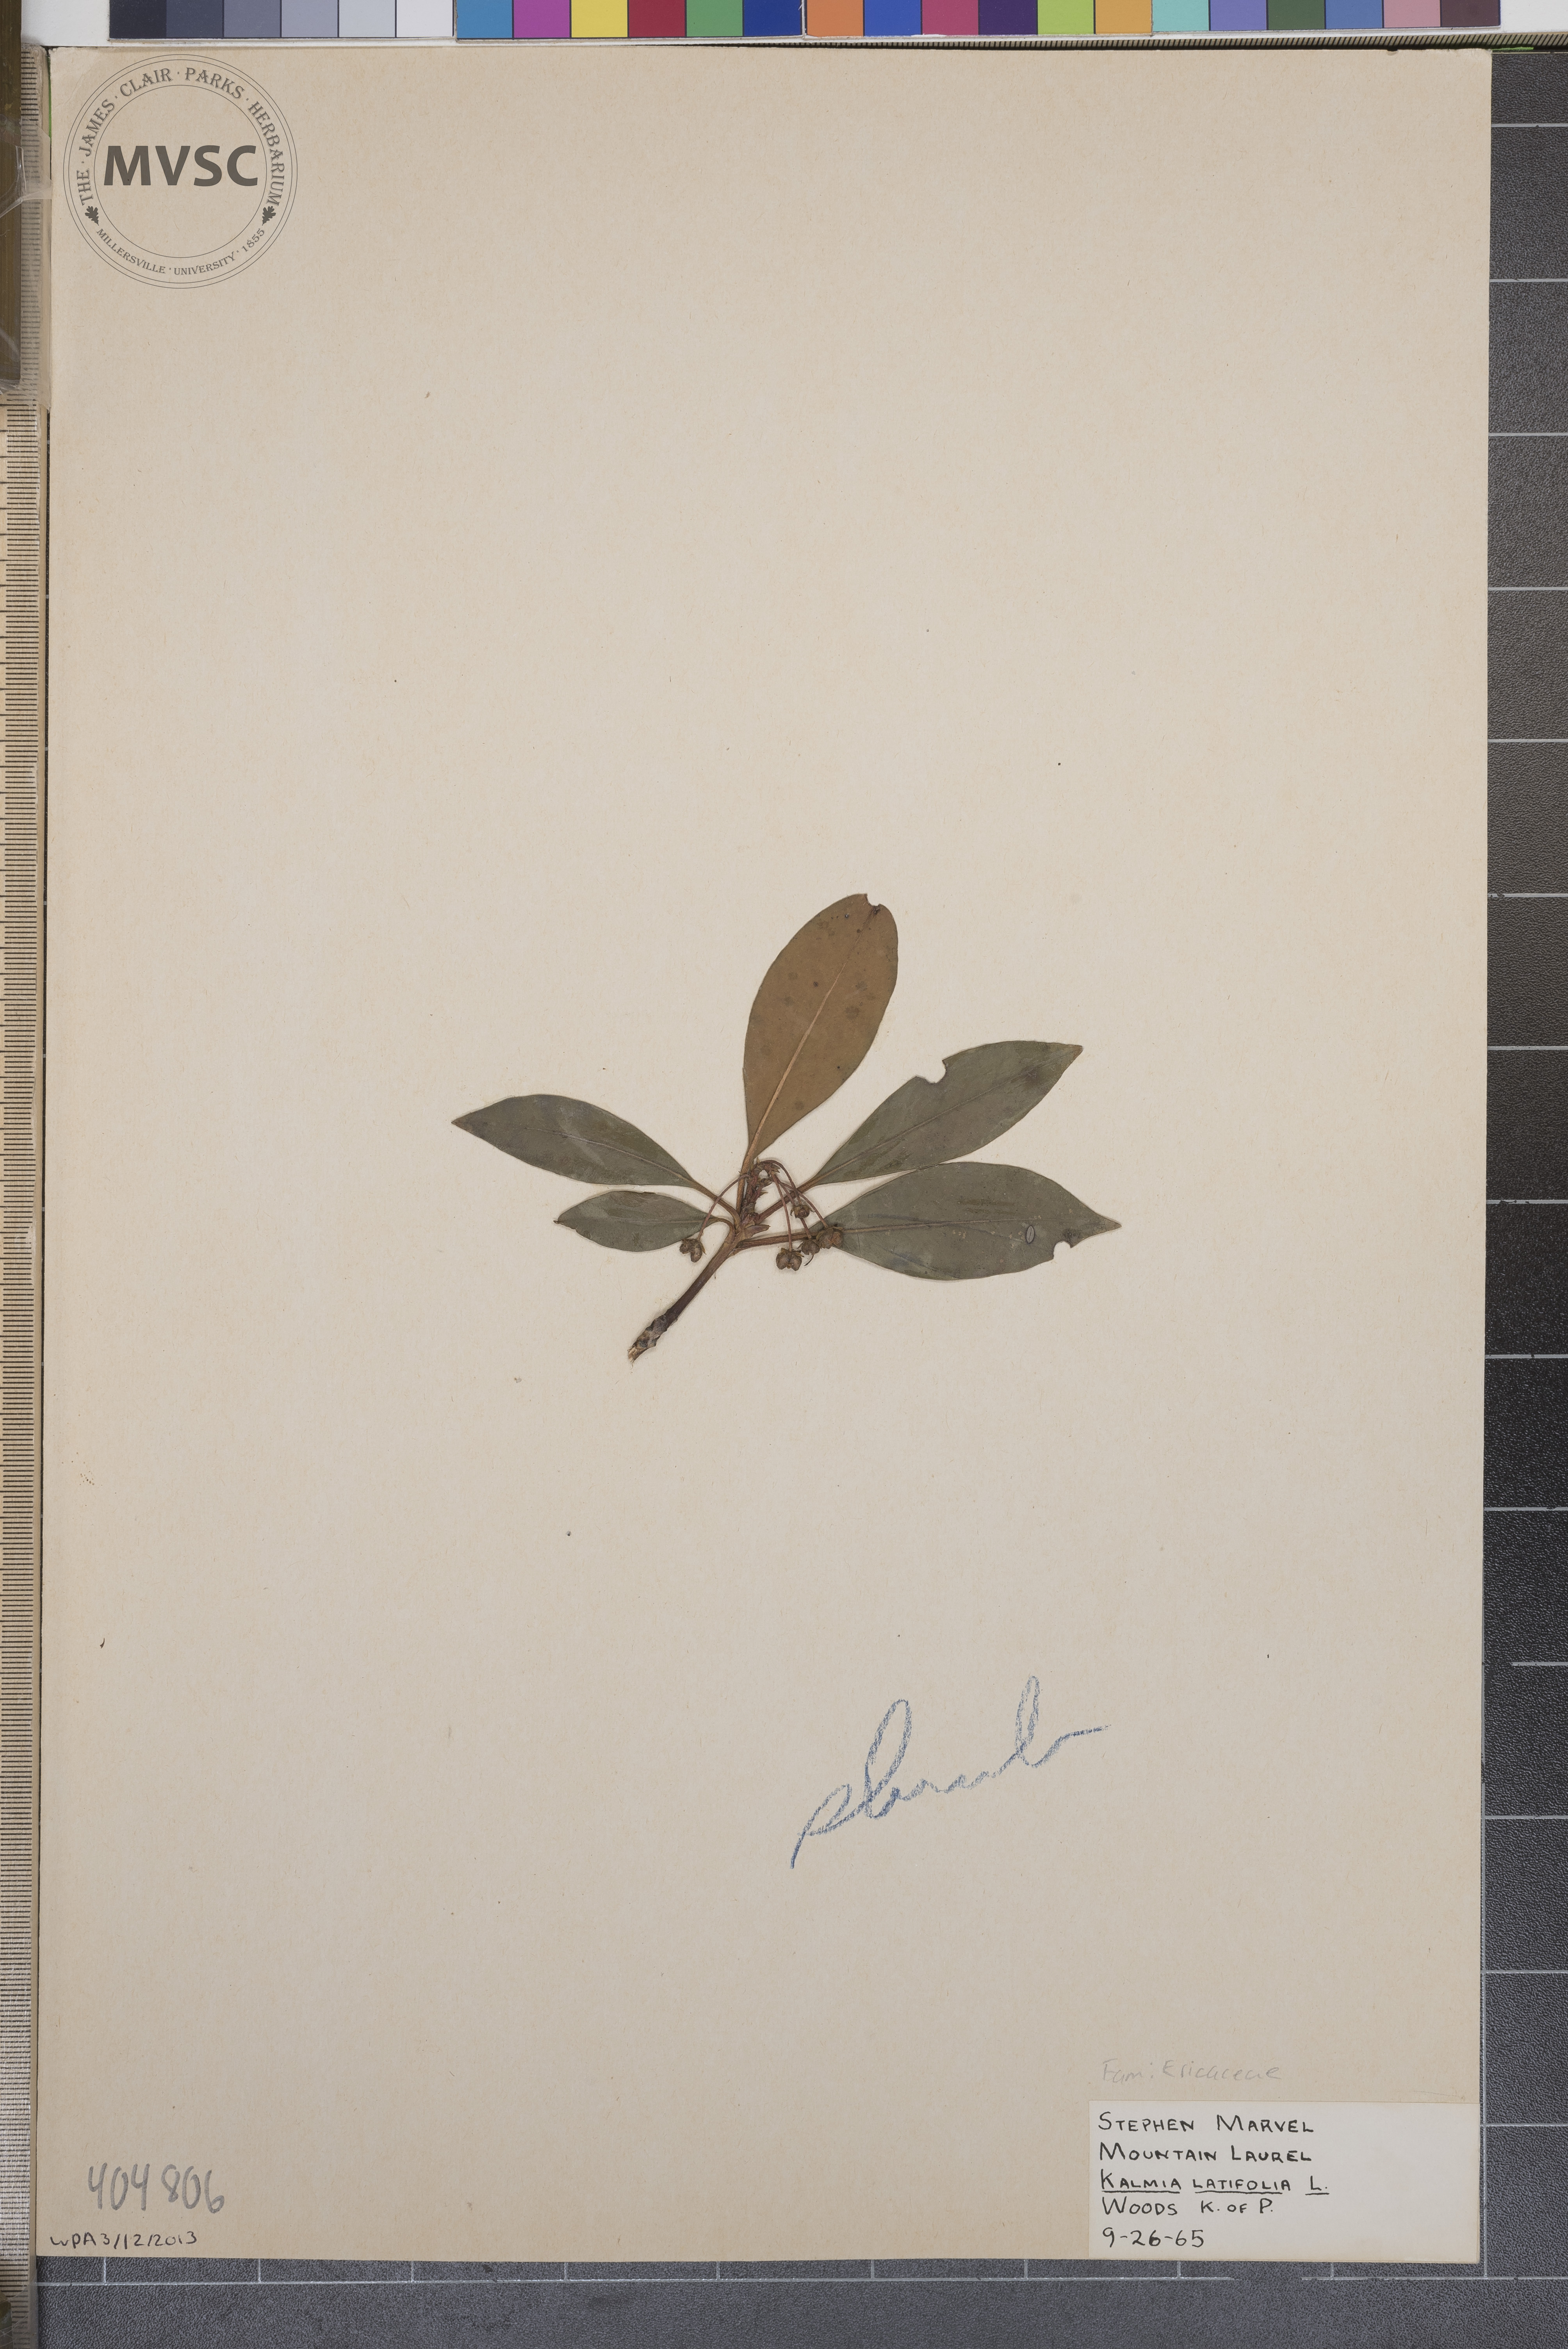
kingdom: Plantae
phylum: Tracheophyta
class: Magnoliopsida
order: Ericales
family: Ericaceae
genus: Kalmia
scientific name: Kalmia latifolia
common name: Mountain-laurel
